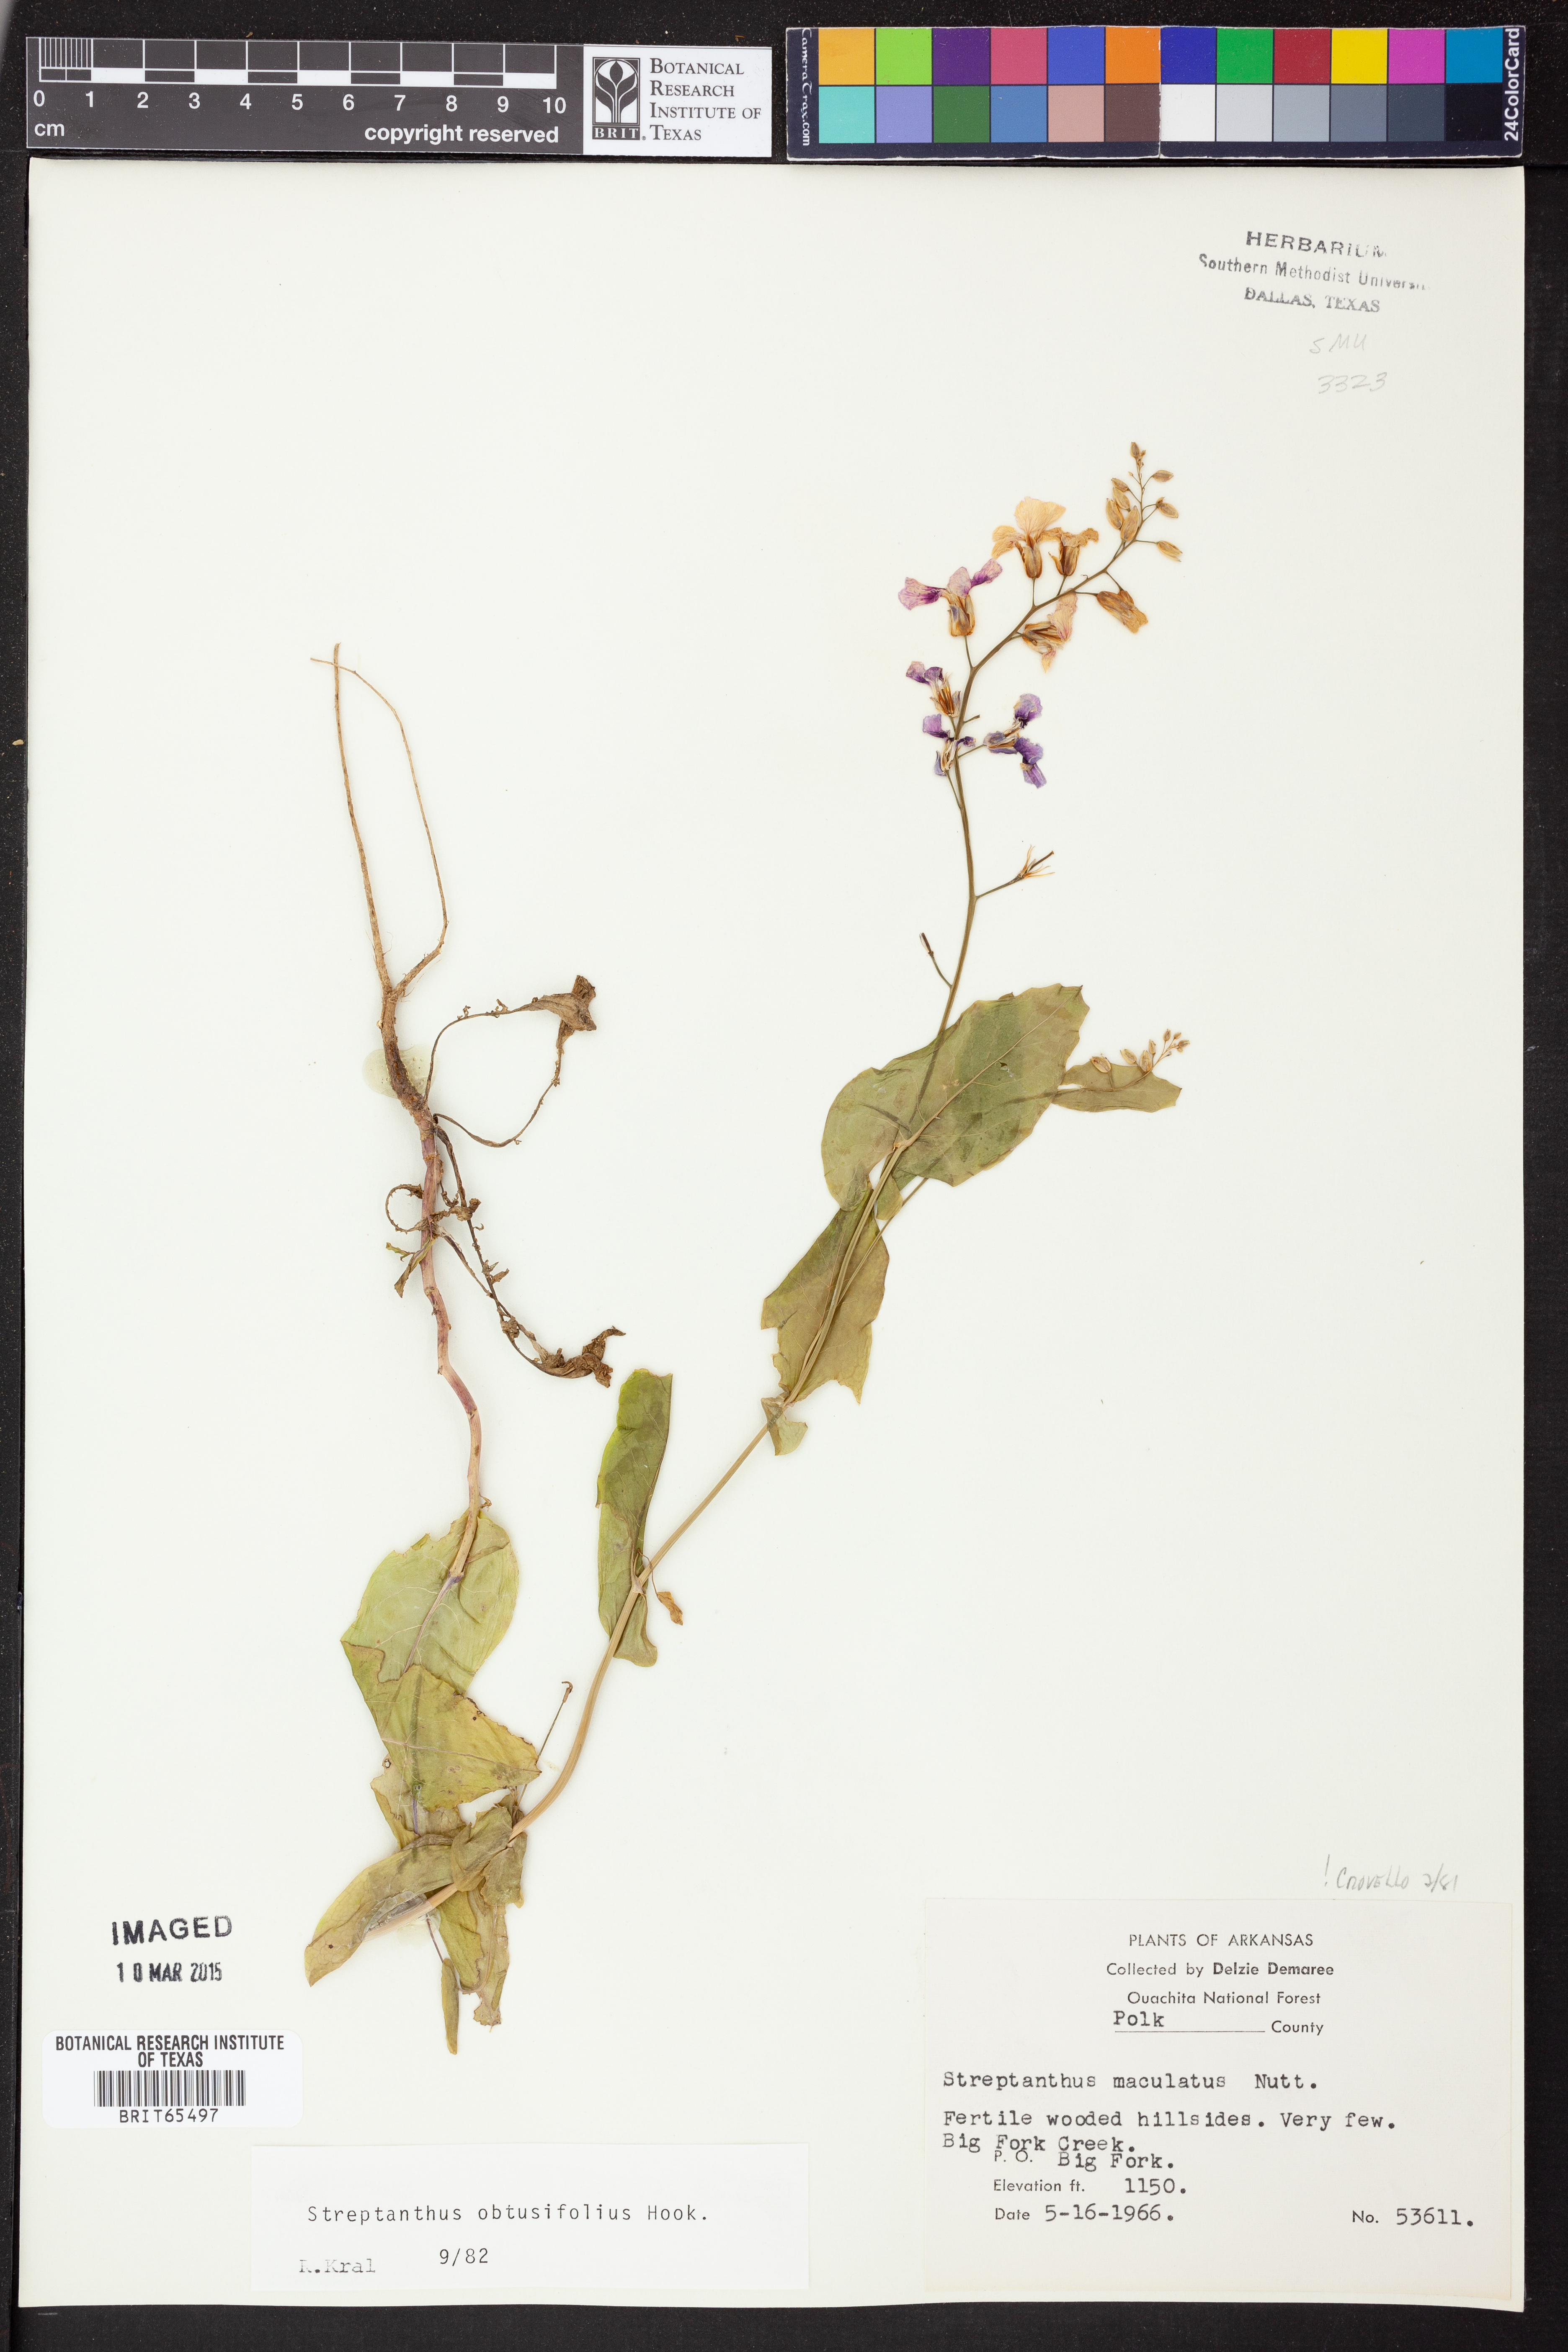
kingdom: Plantae
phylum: Tracheophyta
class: Magnoliopsida
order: Brassicales
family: Brassicaceae
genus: Streptanthus
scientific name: Streptanthus maculatus
